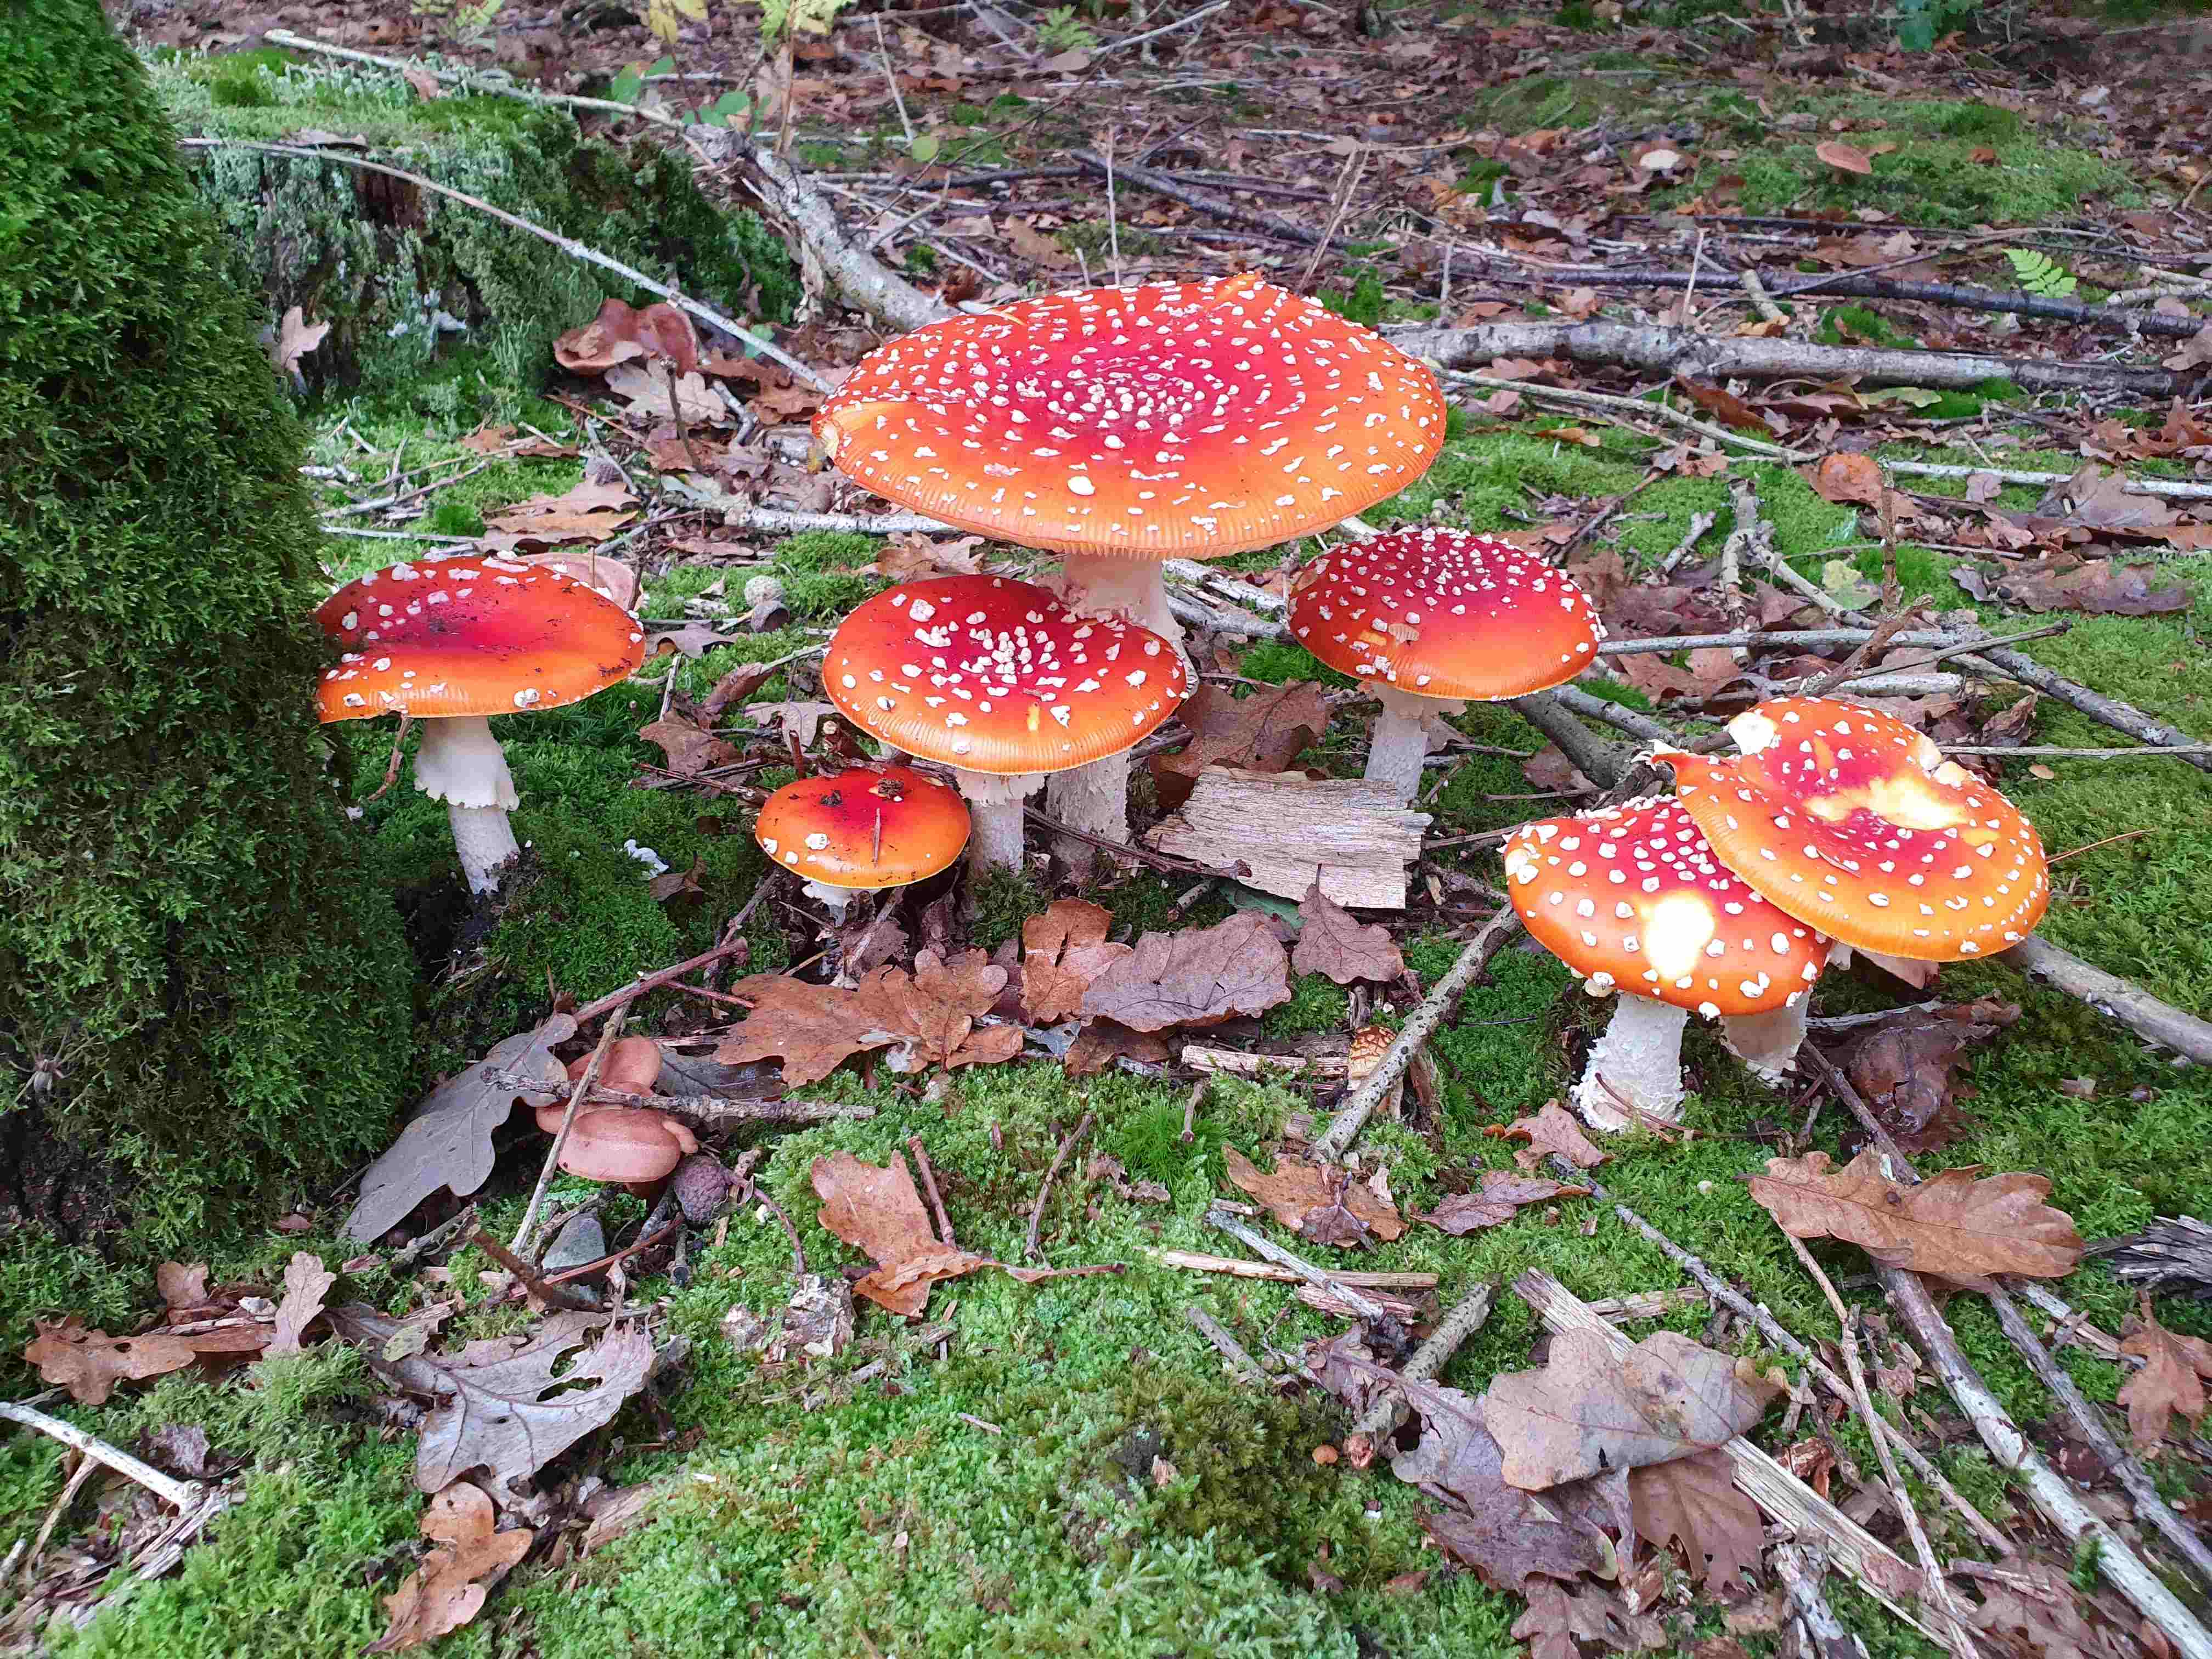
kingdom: Fungi
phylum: Basidiomycota
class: Agaricomycetes
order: Agaricales
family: Amanitaceae
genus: Amanita
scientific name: Amanita muscaria
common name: rød fluesvamp
